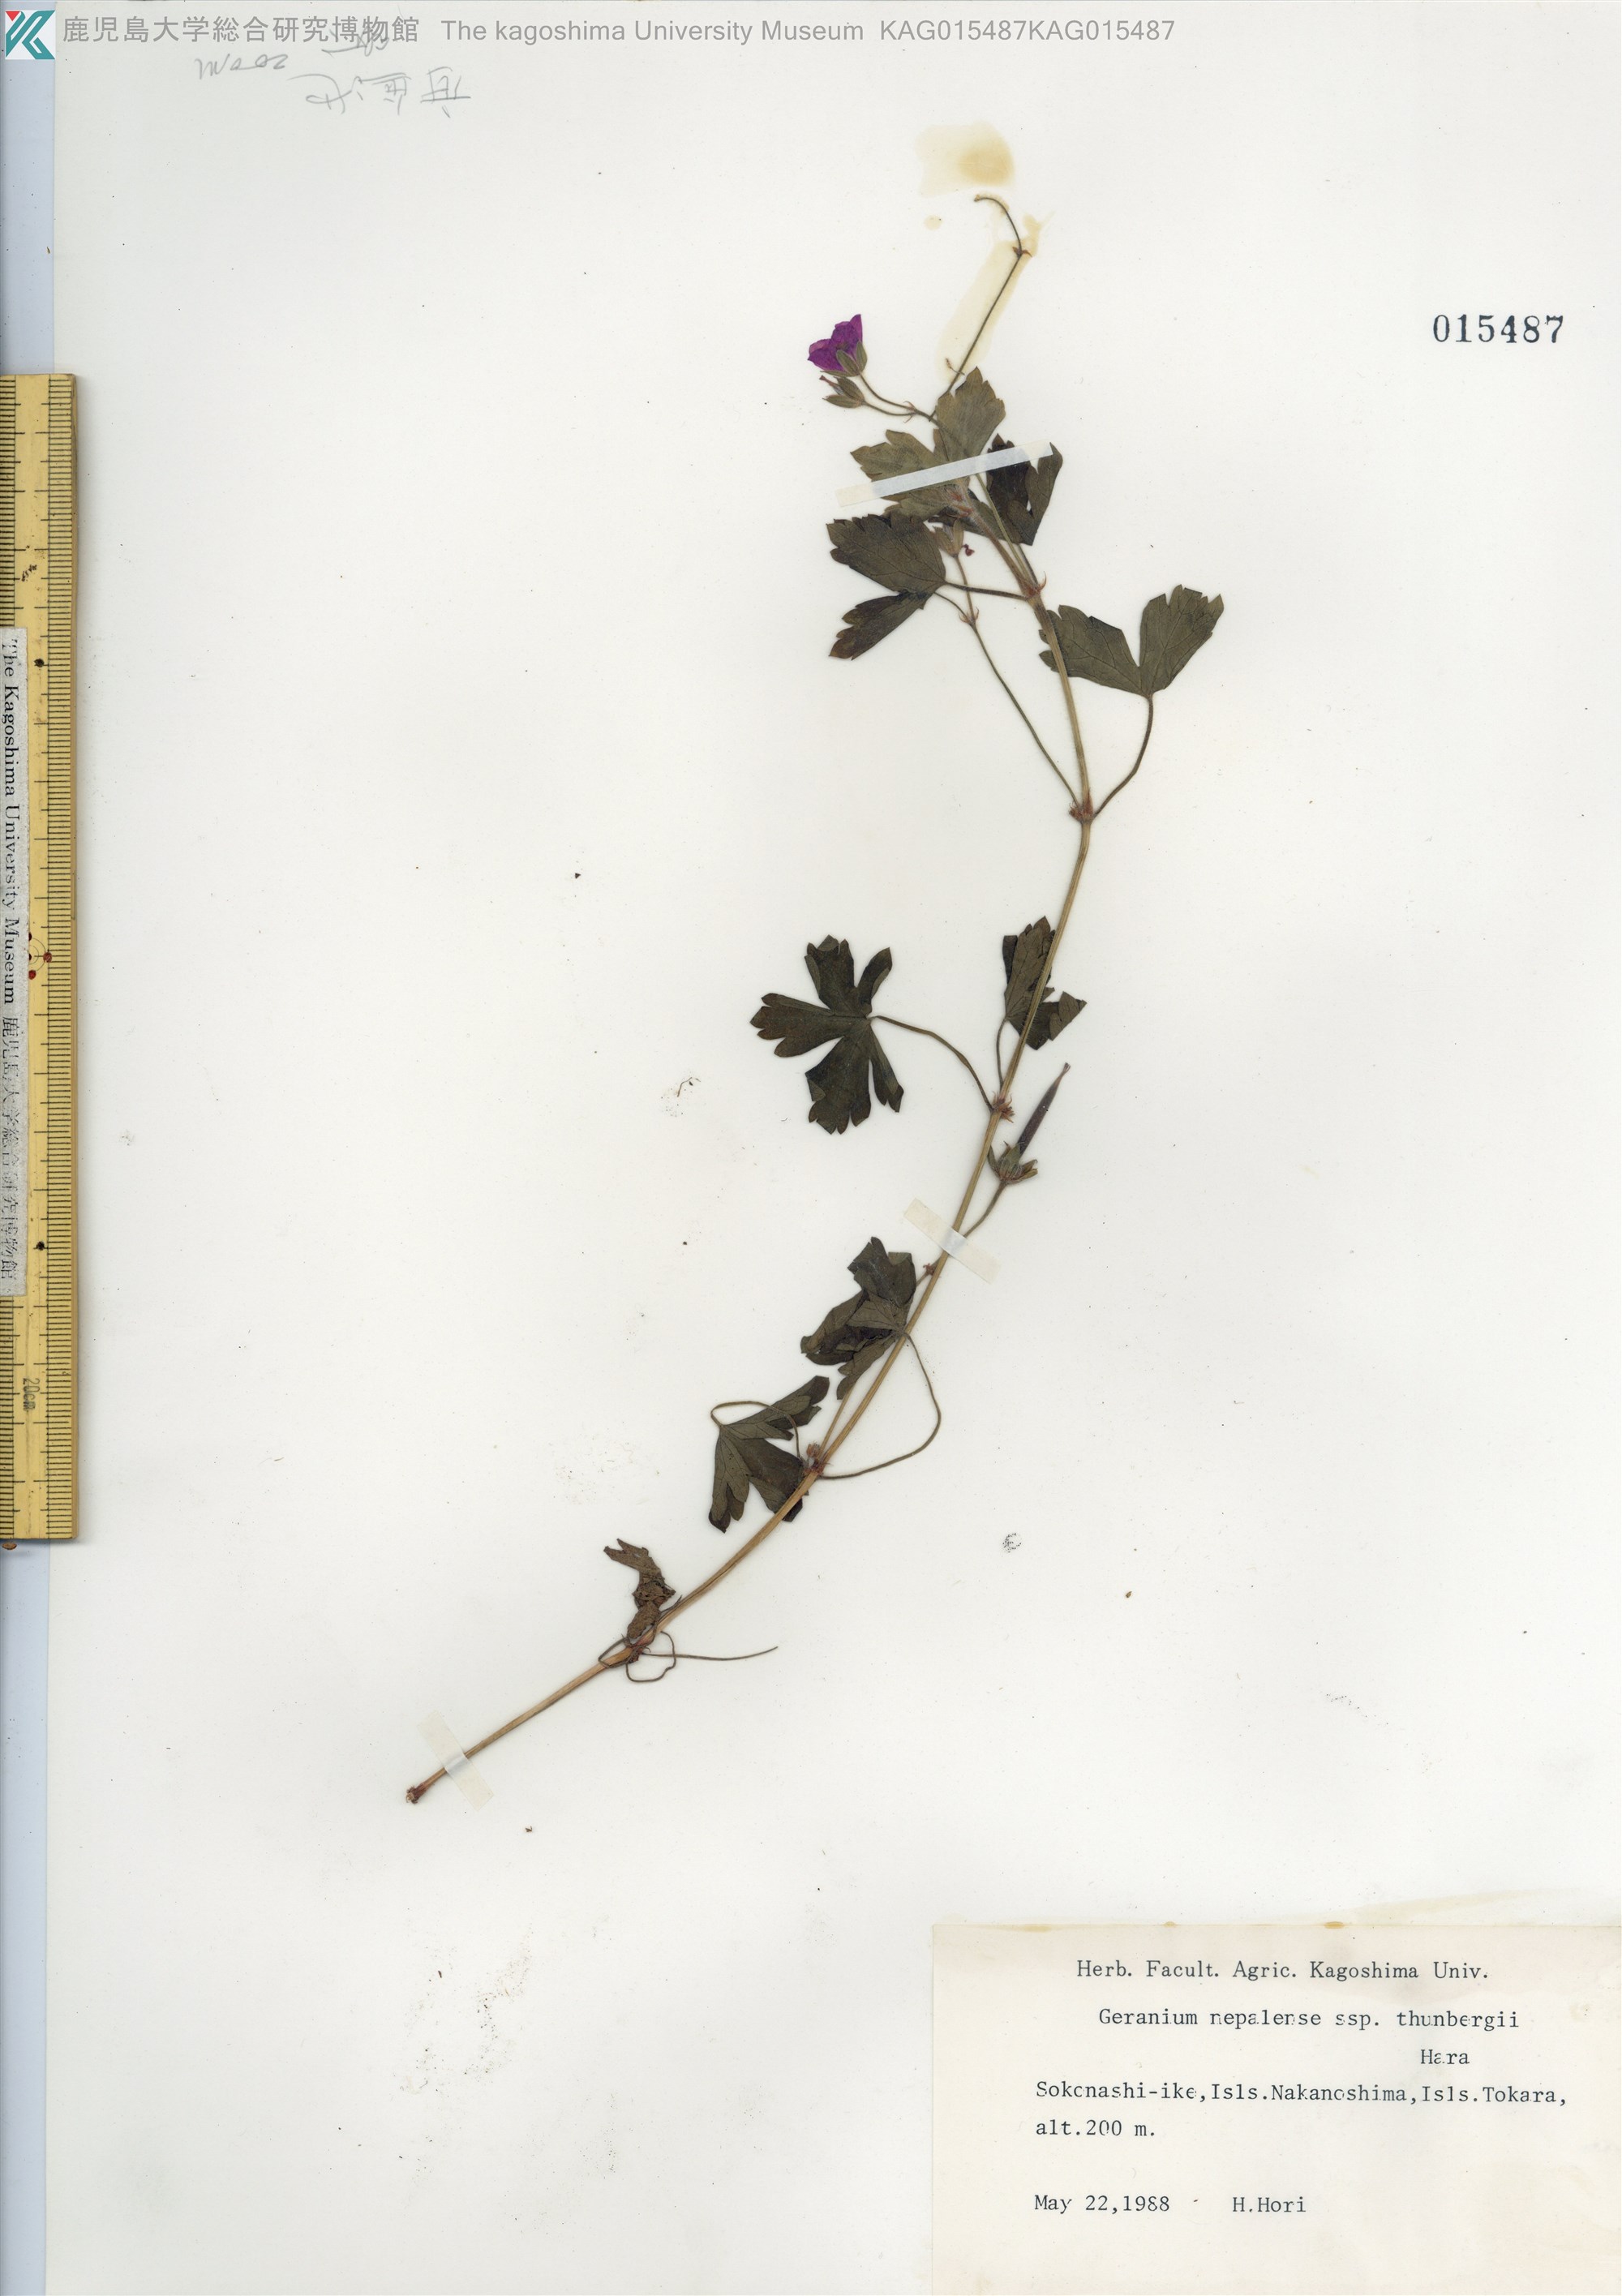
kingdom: Plantae
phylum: Tracheophyta
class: Magnoliopsida
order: Geraniales
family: Geraniaceae
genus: Geranium
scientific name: Geranium thunbergii
